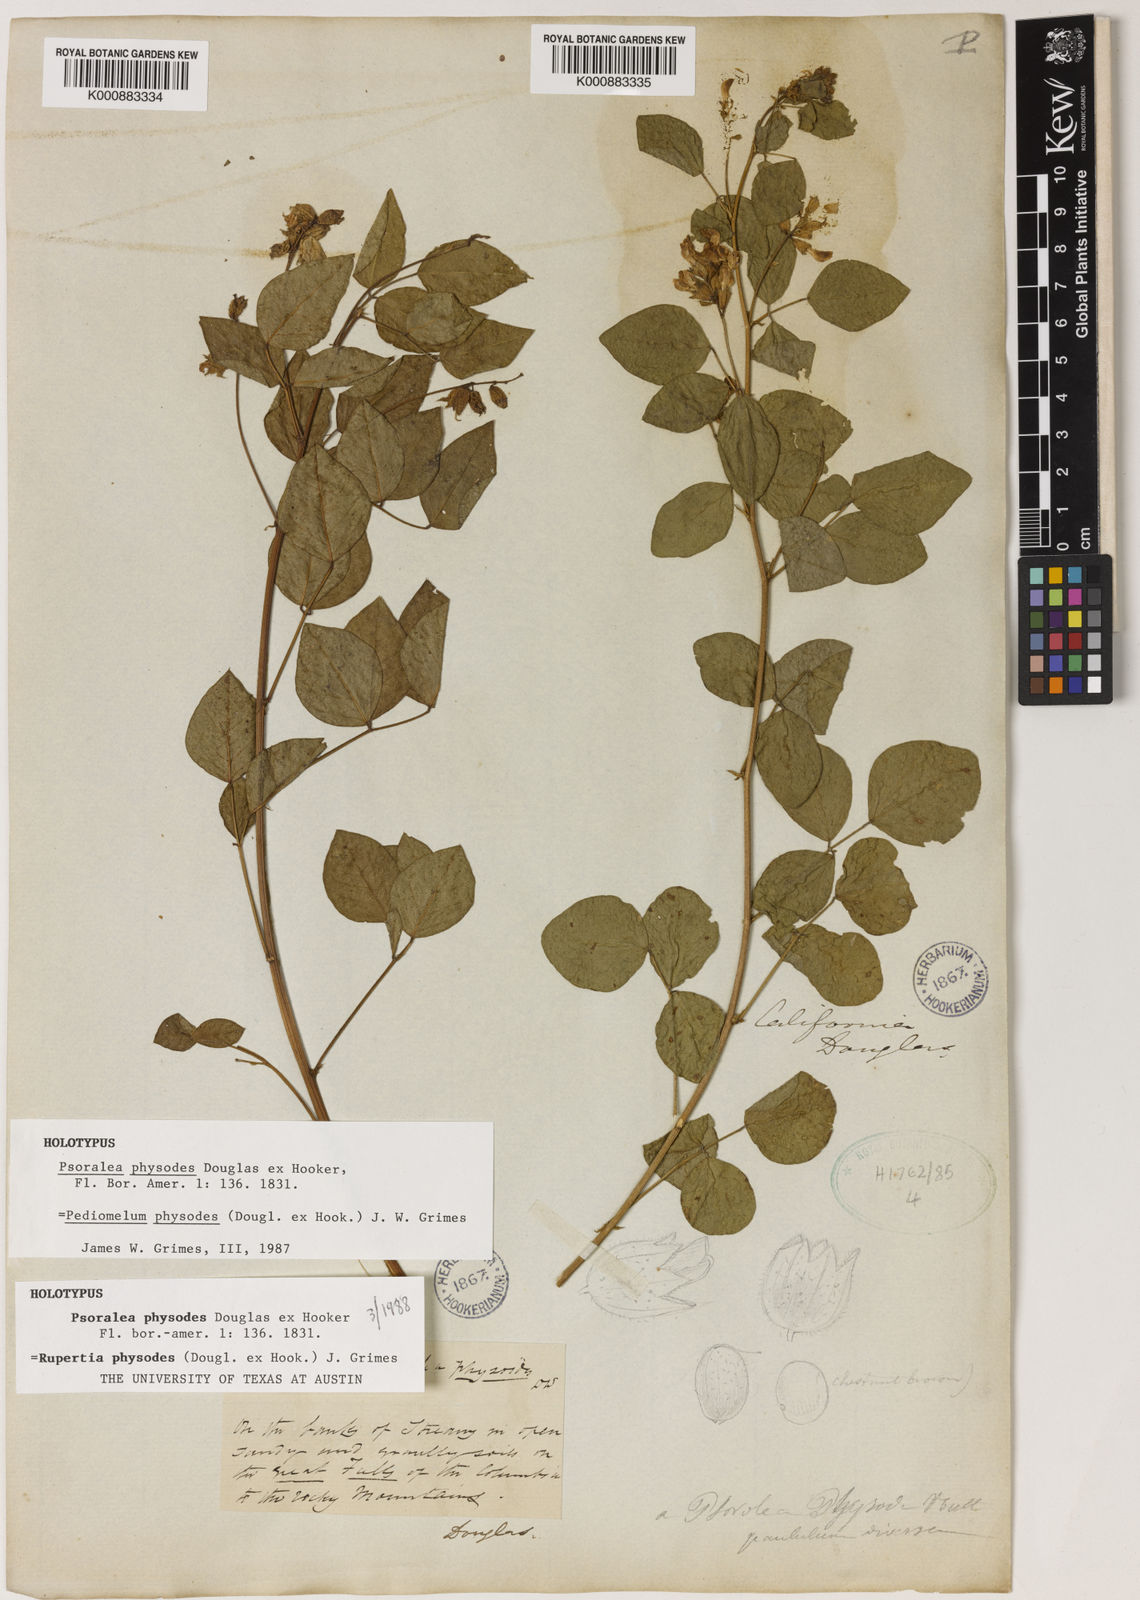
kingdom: Plantae
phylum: Tracheophyta
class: Magnoliopsida
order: Fabales
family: Fabaceae
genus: Rupertia
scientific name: Rupertia physodes
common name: California-tea
